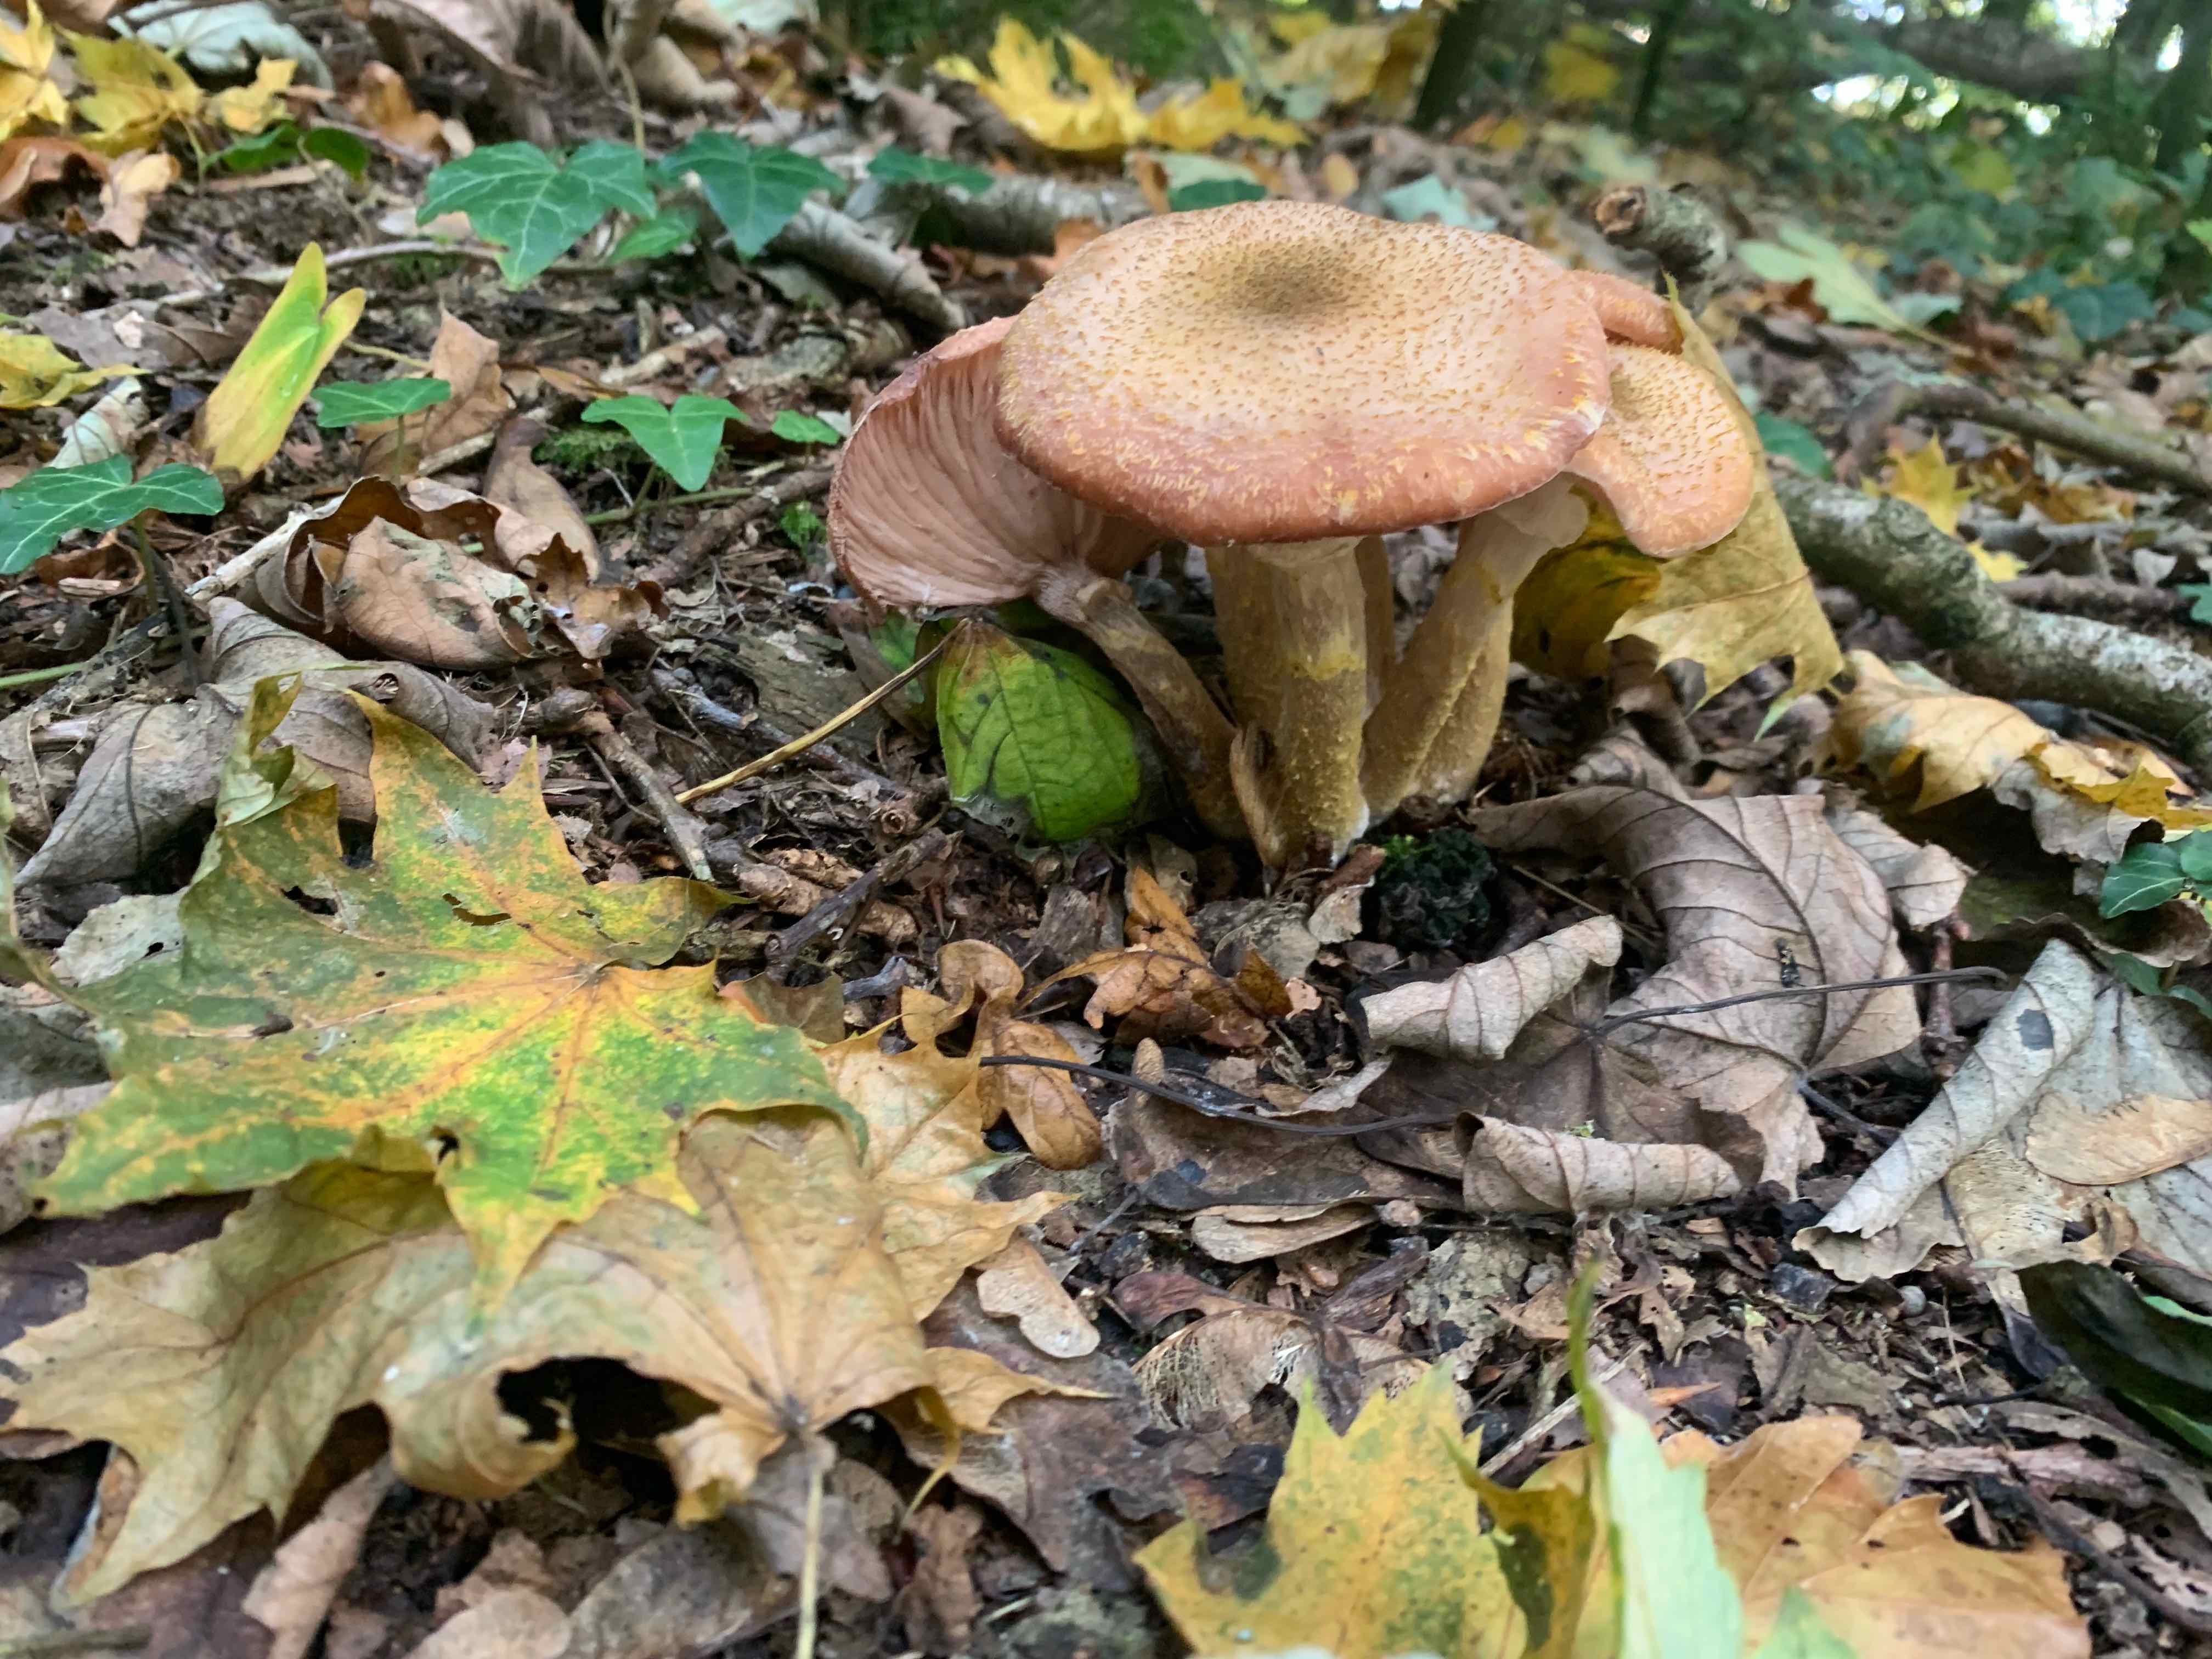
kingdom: Fungi
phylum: Basidiomycota
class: Agaricomycetes
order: Agaricales
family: Physalacriaceae
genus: Armillaria
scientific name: Armillaria
